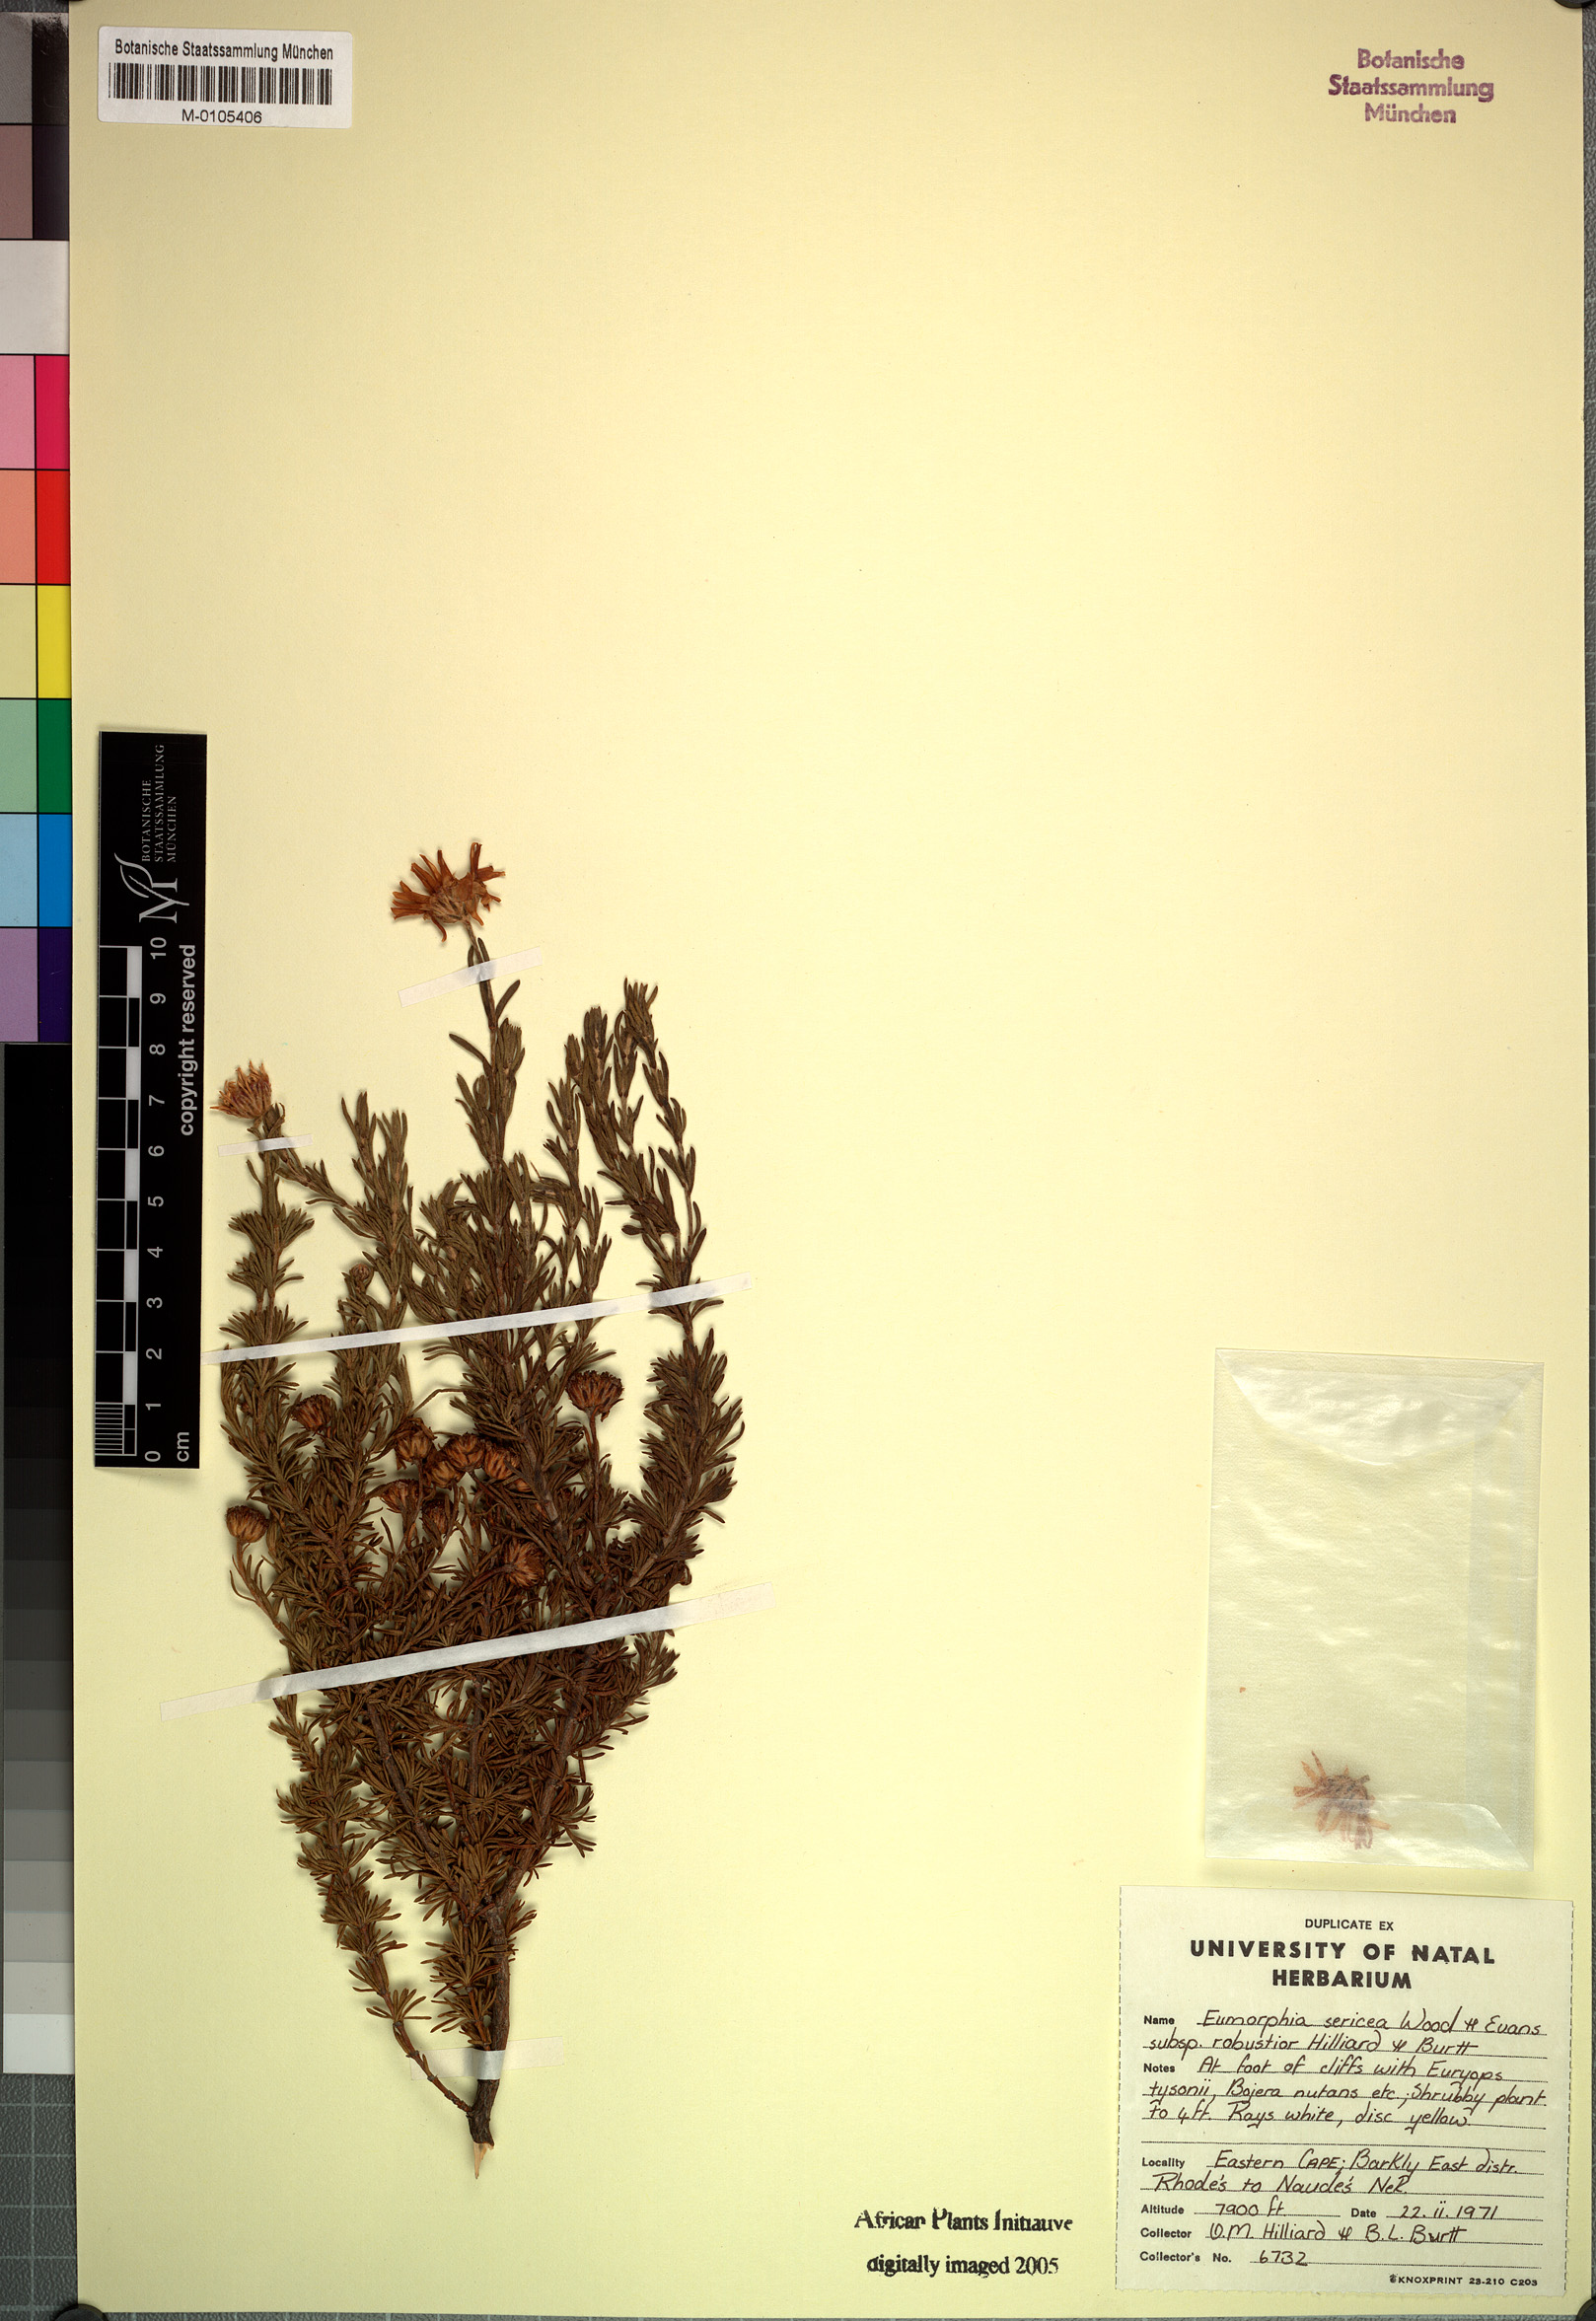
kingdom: Plantae
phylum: Tracheophyta
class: Magnoliopsida
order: Asterales
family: Asteraceae
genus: Eumorphia
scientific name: Eumorphia sericea
